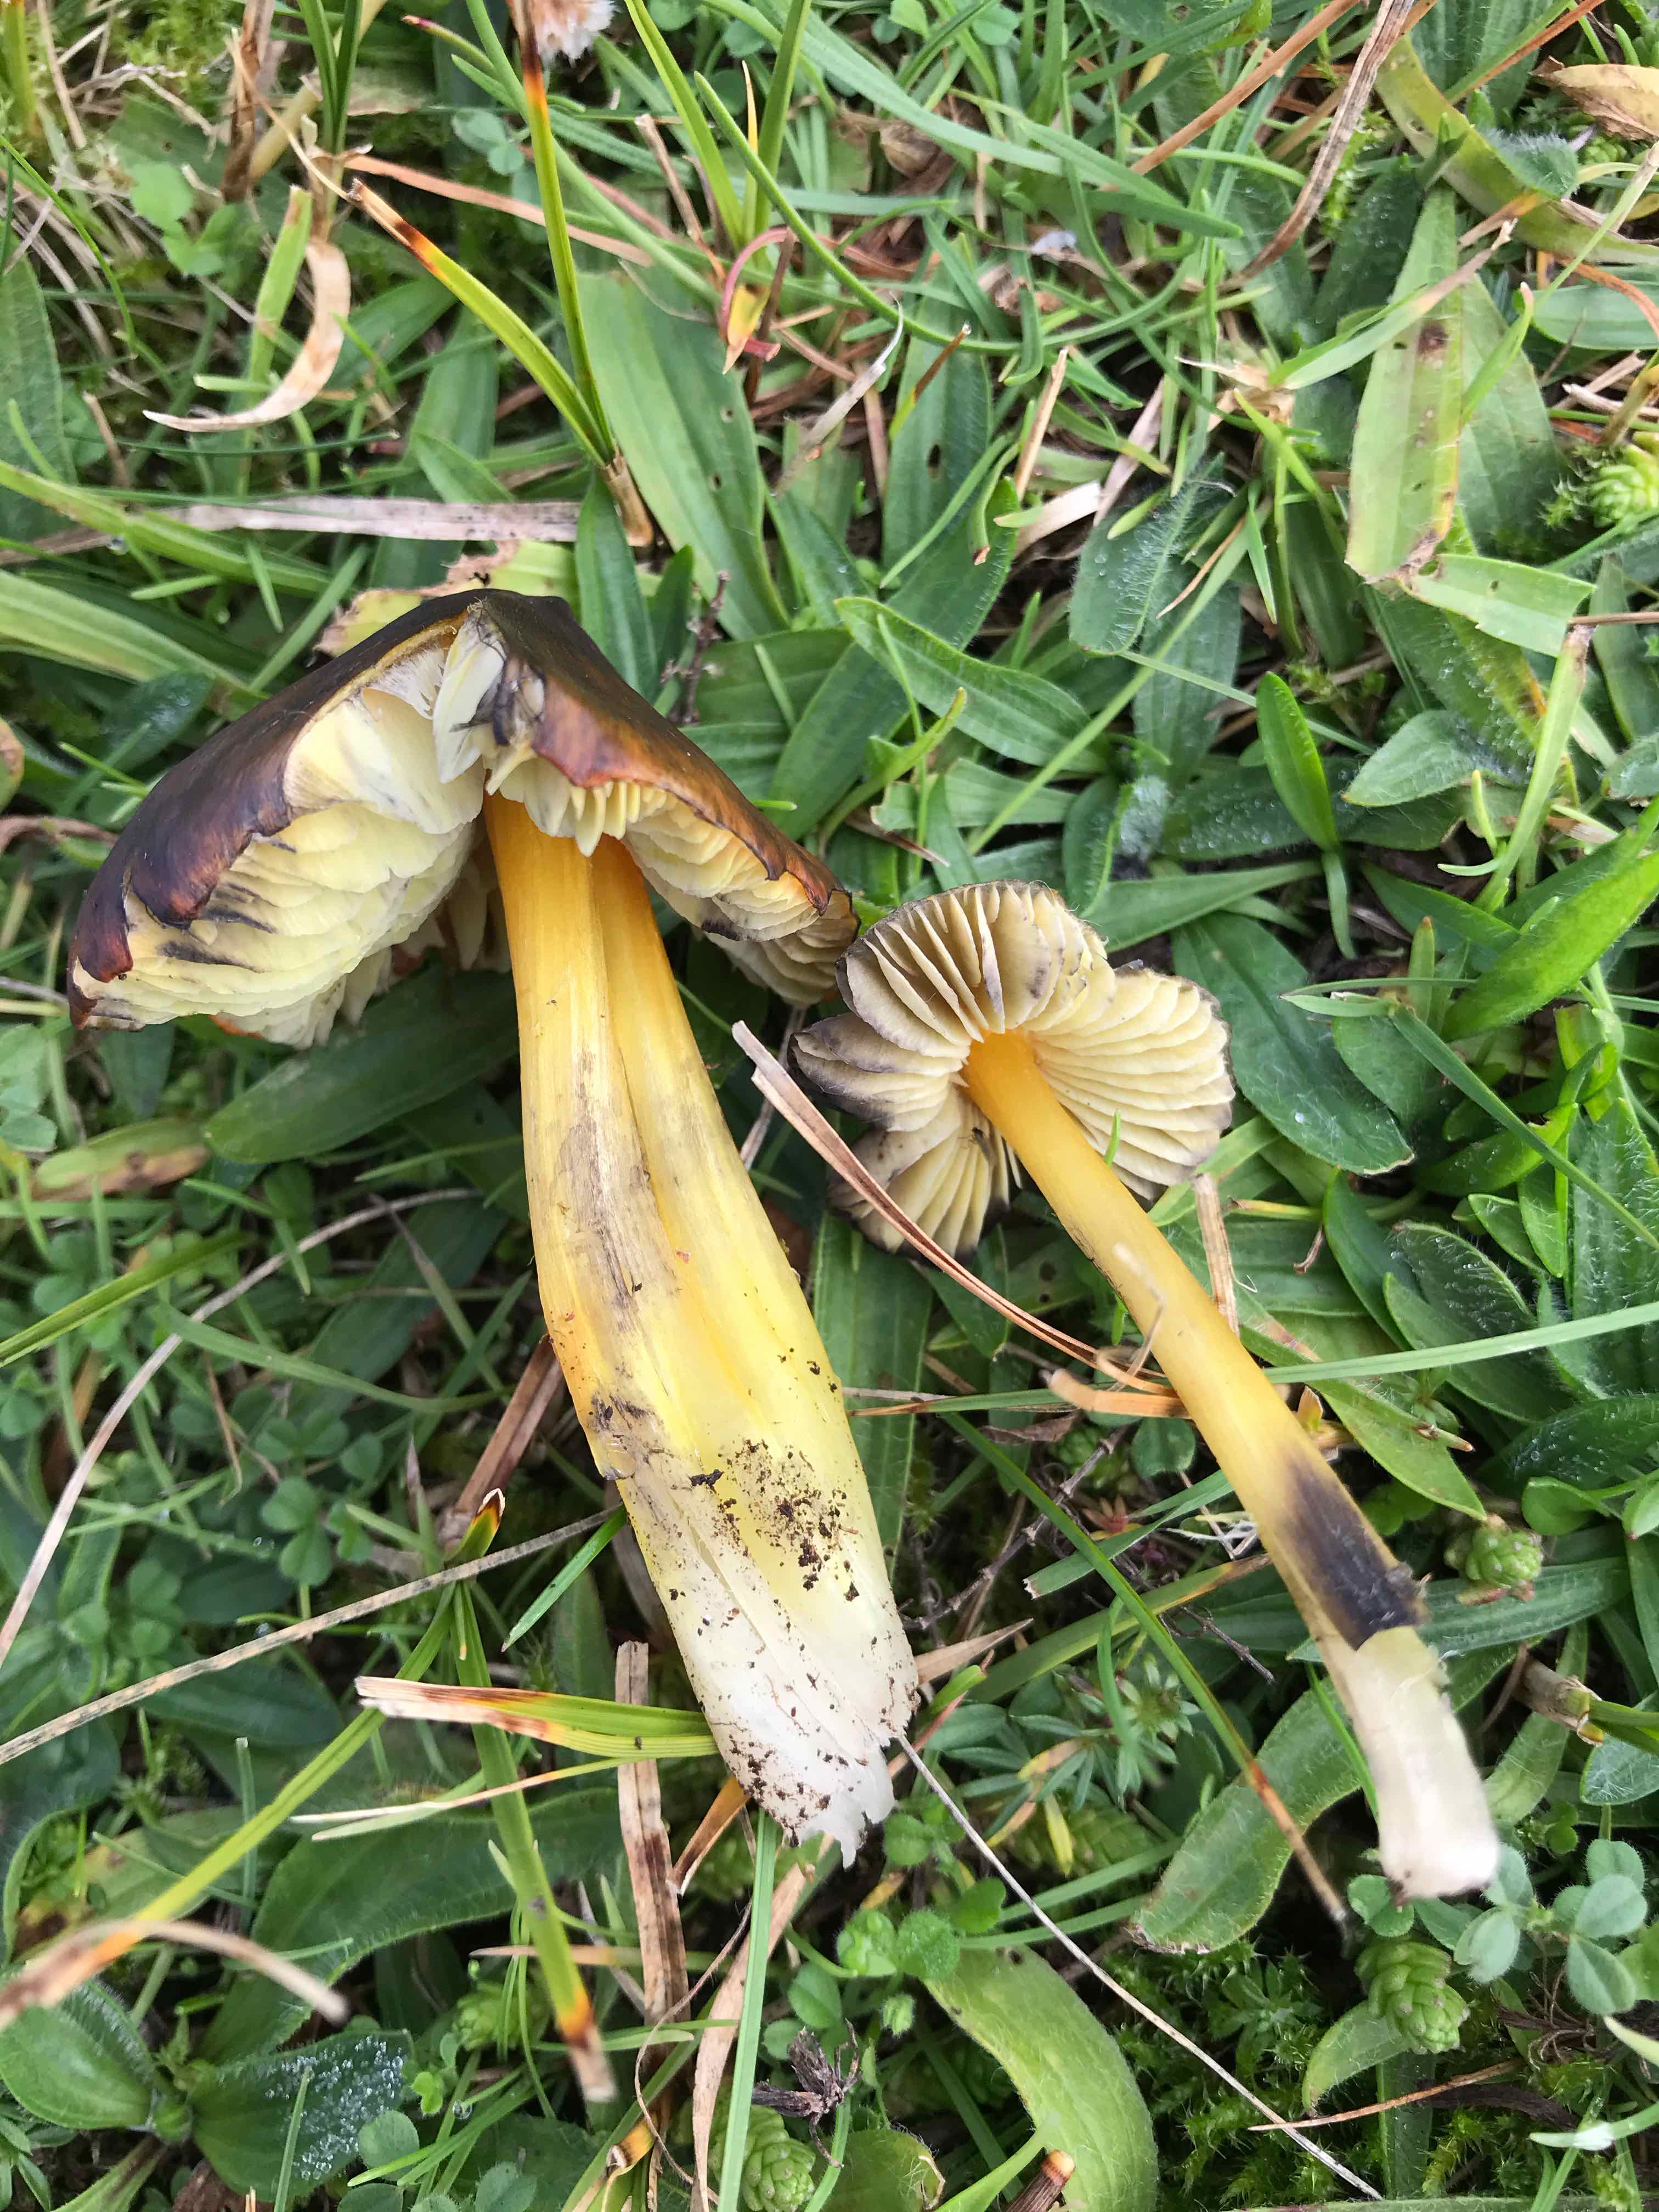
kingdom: Fungi
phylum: Basidiomycota
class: Agaricomycetes
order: Agaricales
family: Hygrophoraceae
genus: Hygrocybe
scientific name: Hygrocybe conica
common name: kegle-vokshat
